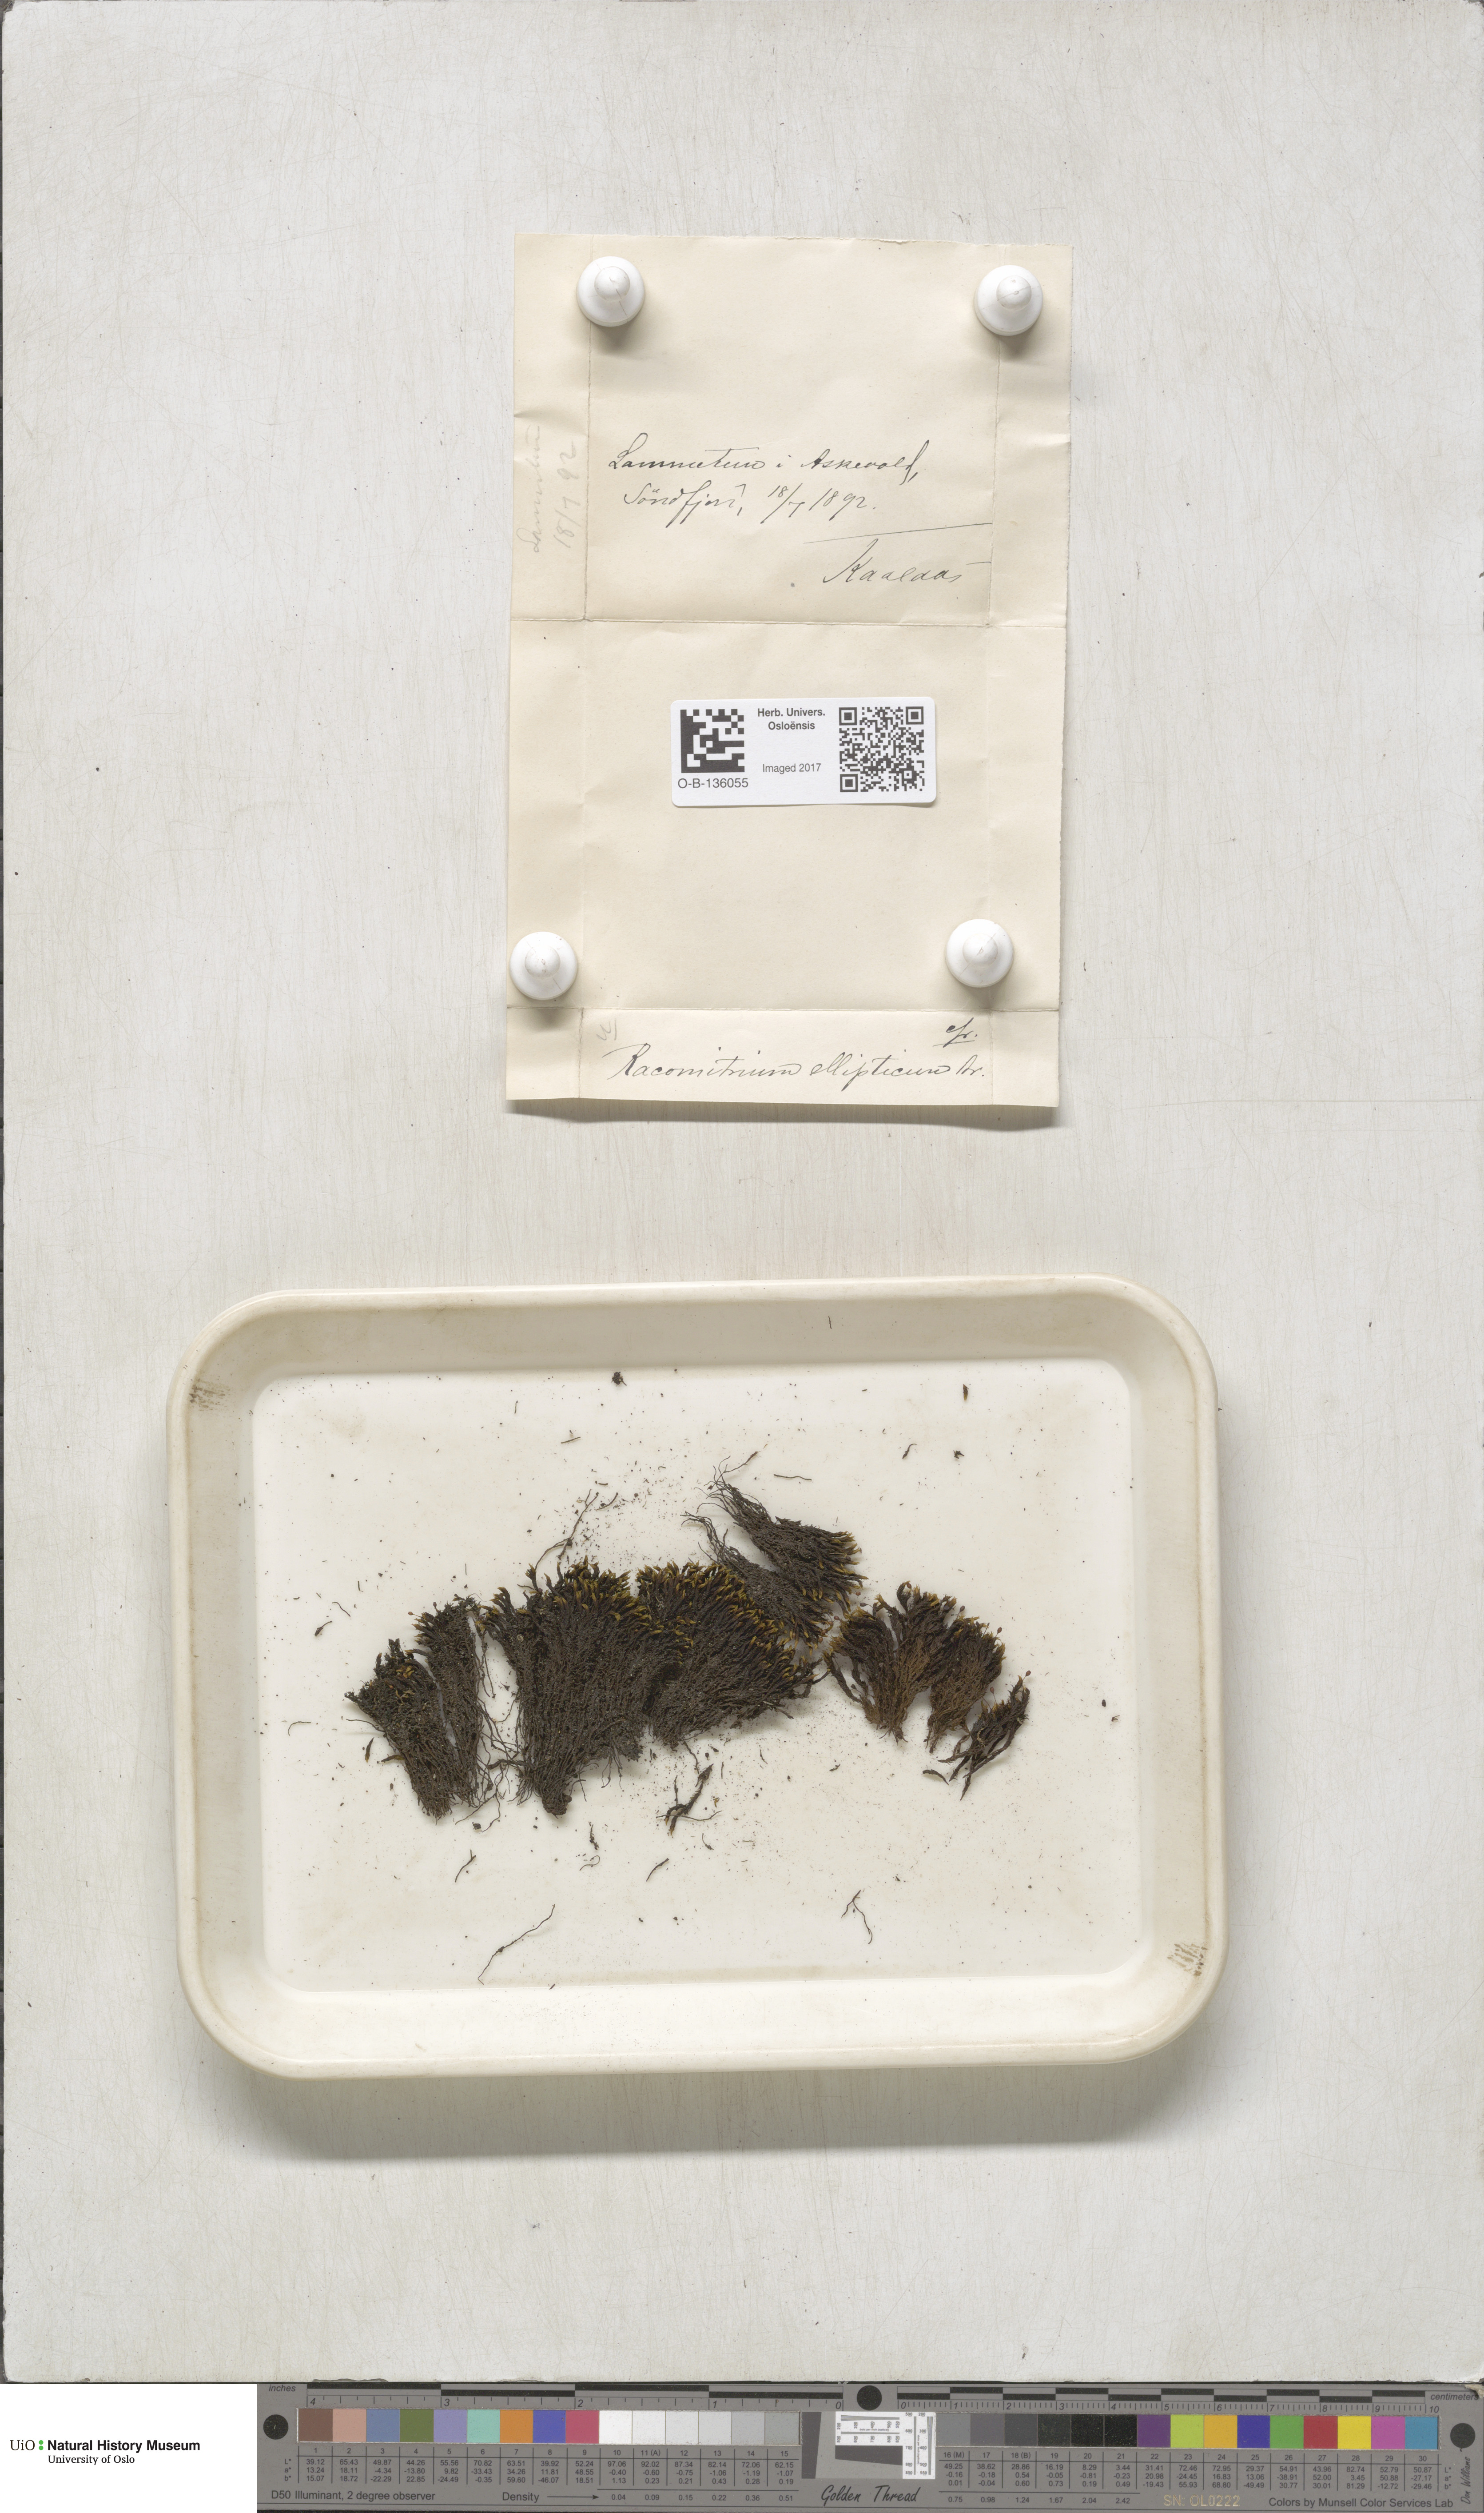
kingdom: Plantae
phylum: Bryophyta
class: Bryopsida
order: Grimmiales
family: Grimmiaceae
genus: Bucklandiella
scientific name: Bucklandiella elliptica
